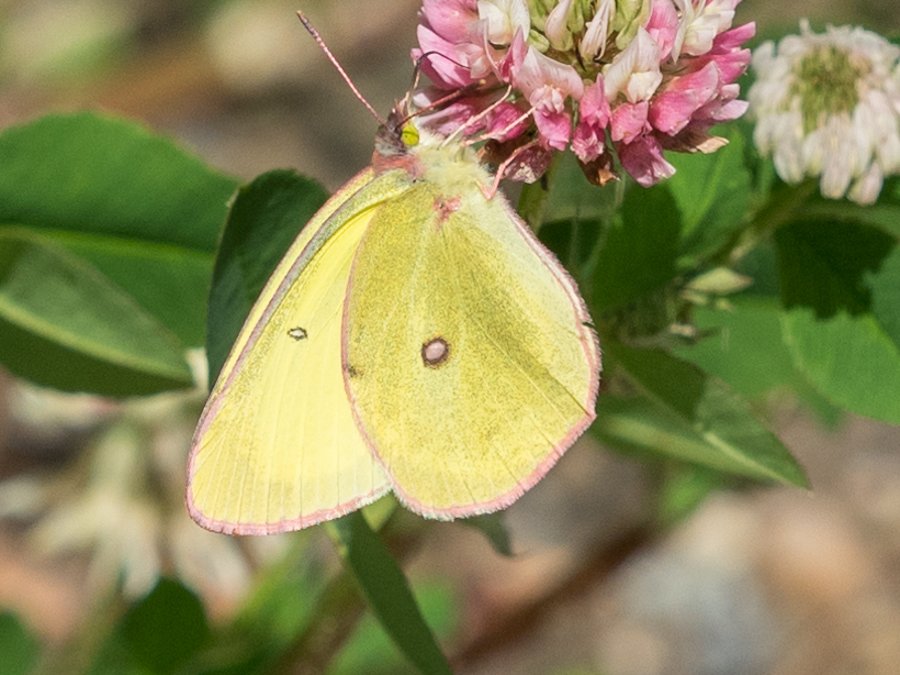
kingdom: Animalia
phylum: Arthropoda
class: Insecta
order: Lepidoptera
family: Pieridae
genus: Colias
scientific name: Colias interior
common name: Pink-edged Sulphur
